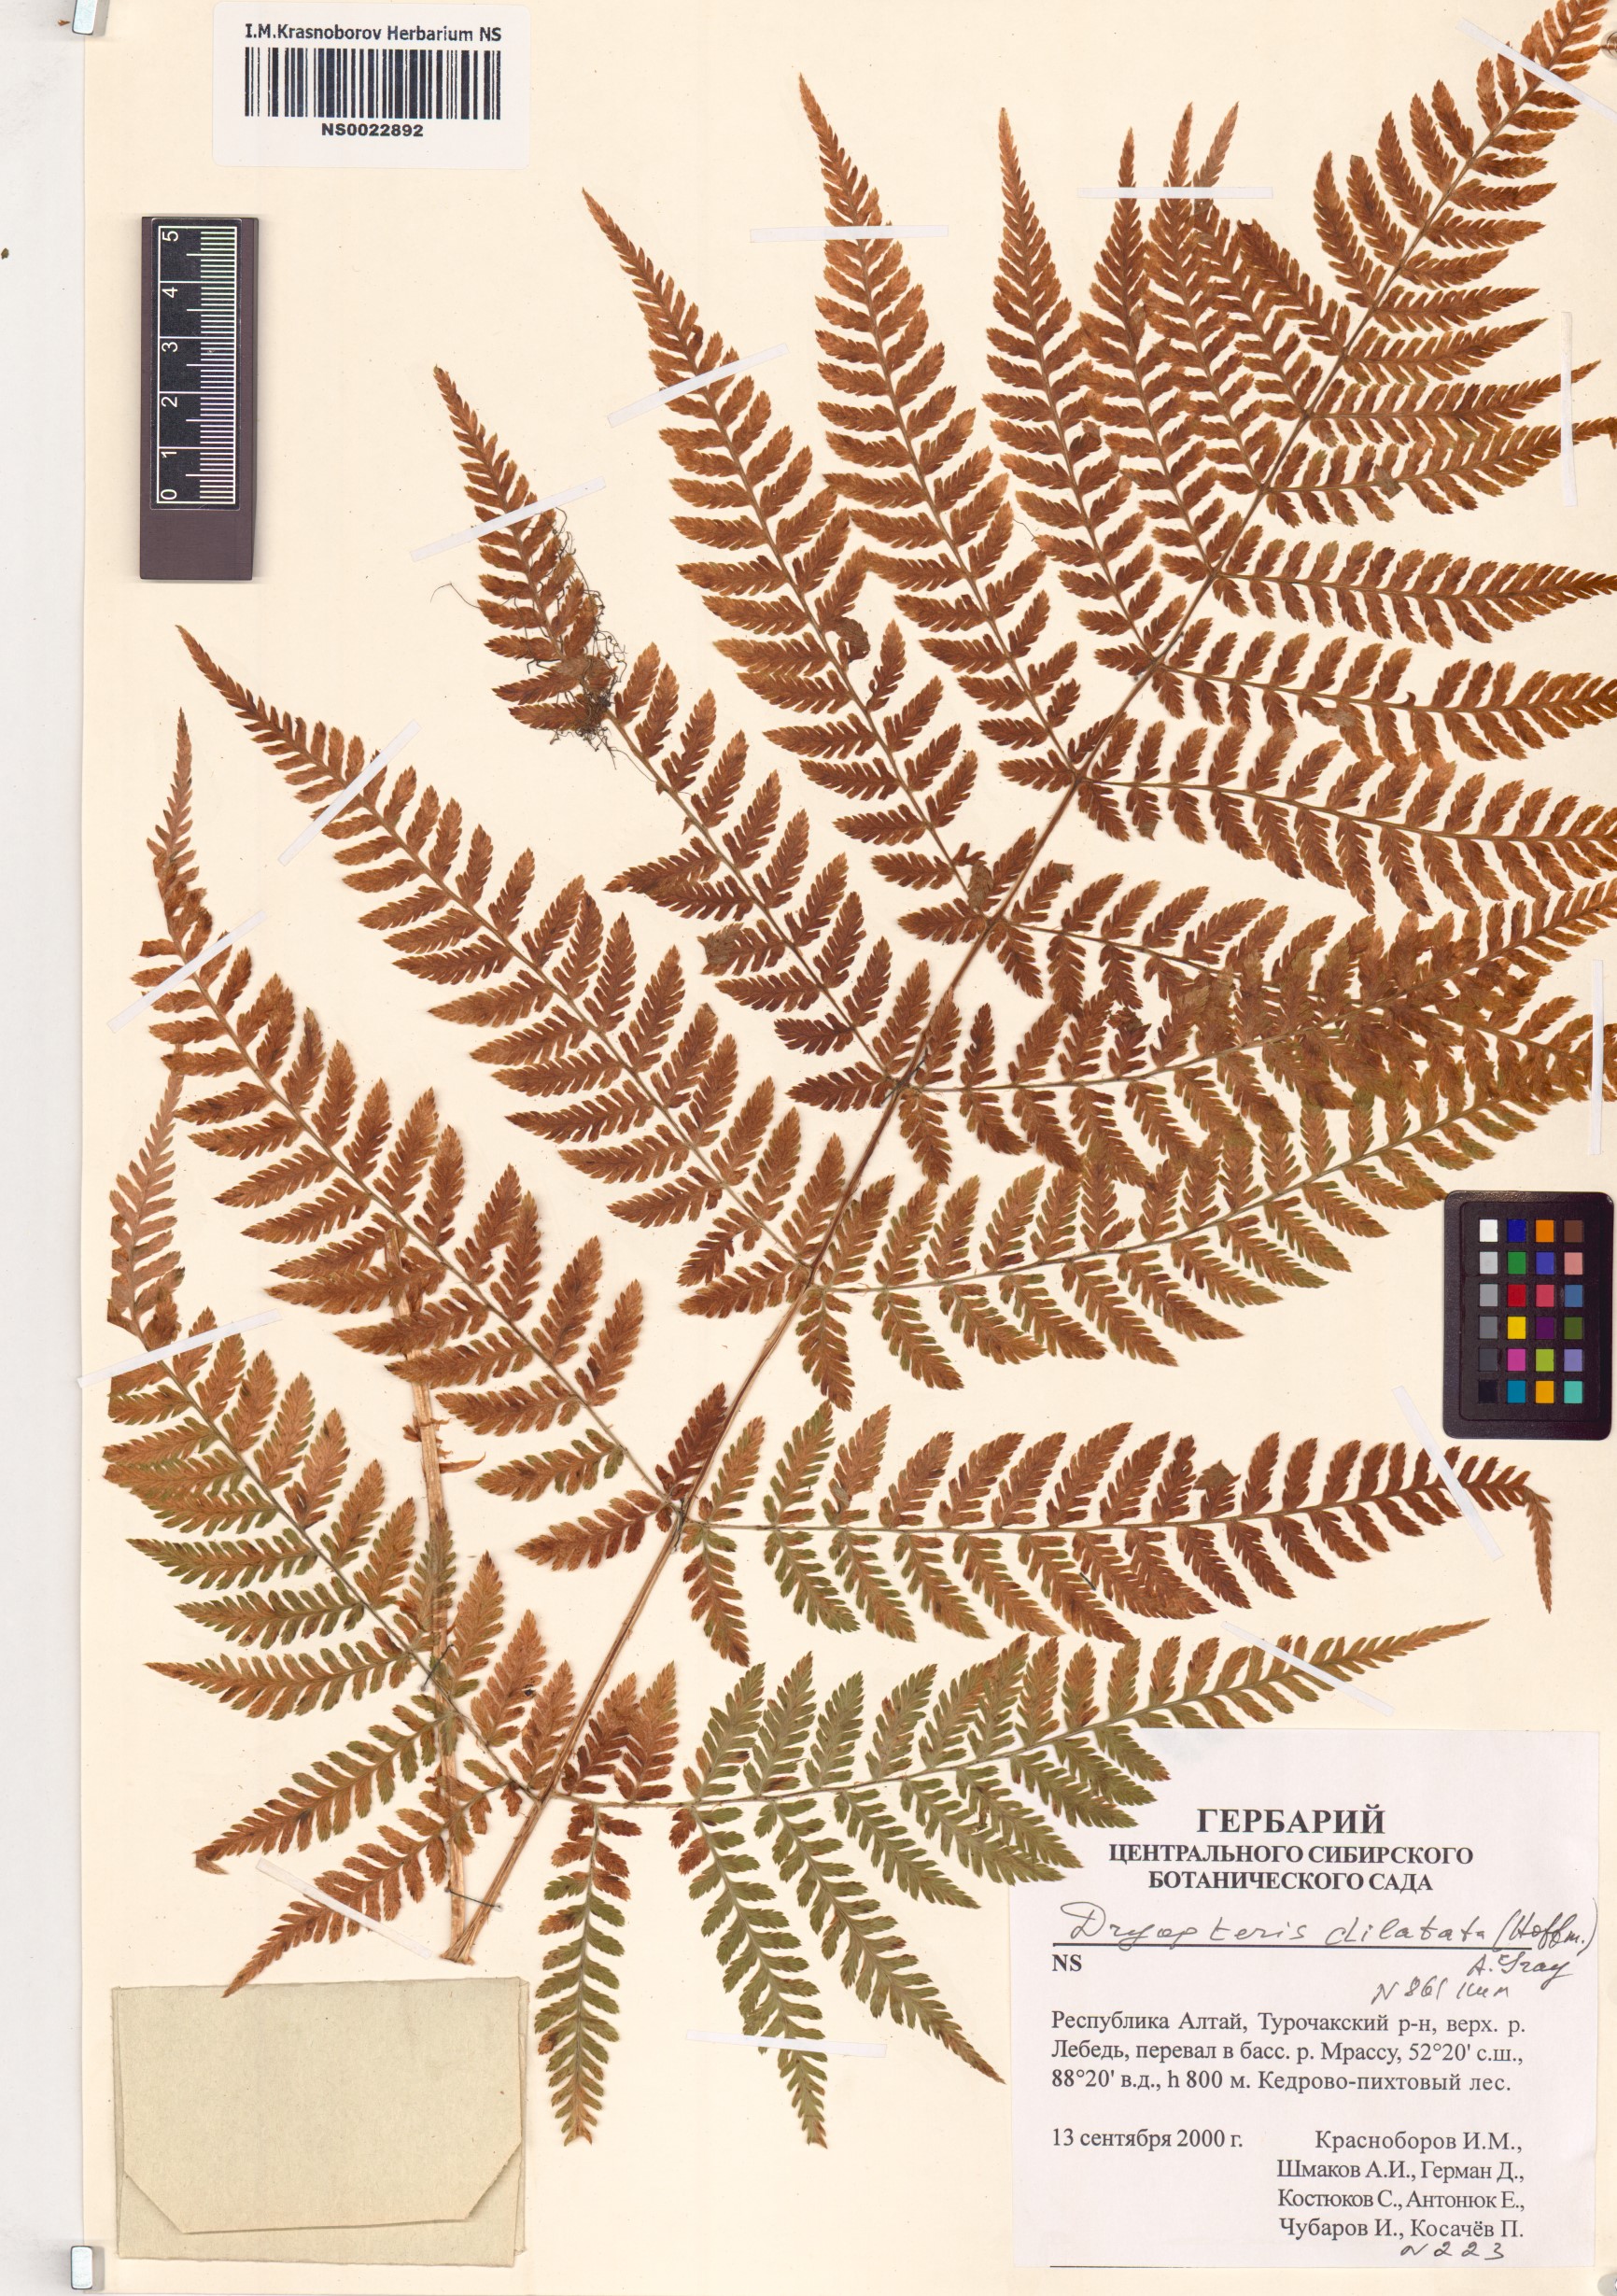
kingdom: Plantae
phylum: Tracheophyta
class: Polypodiopsida
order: Polypodiales
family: Dryopteridaceae
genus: Dryopteris
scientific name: Dryopteris dilatata
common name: Broad buckler-fern
